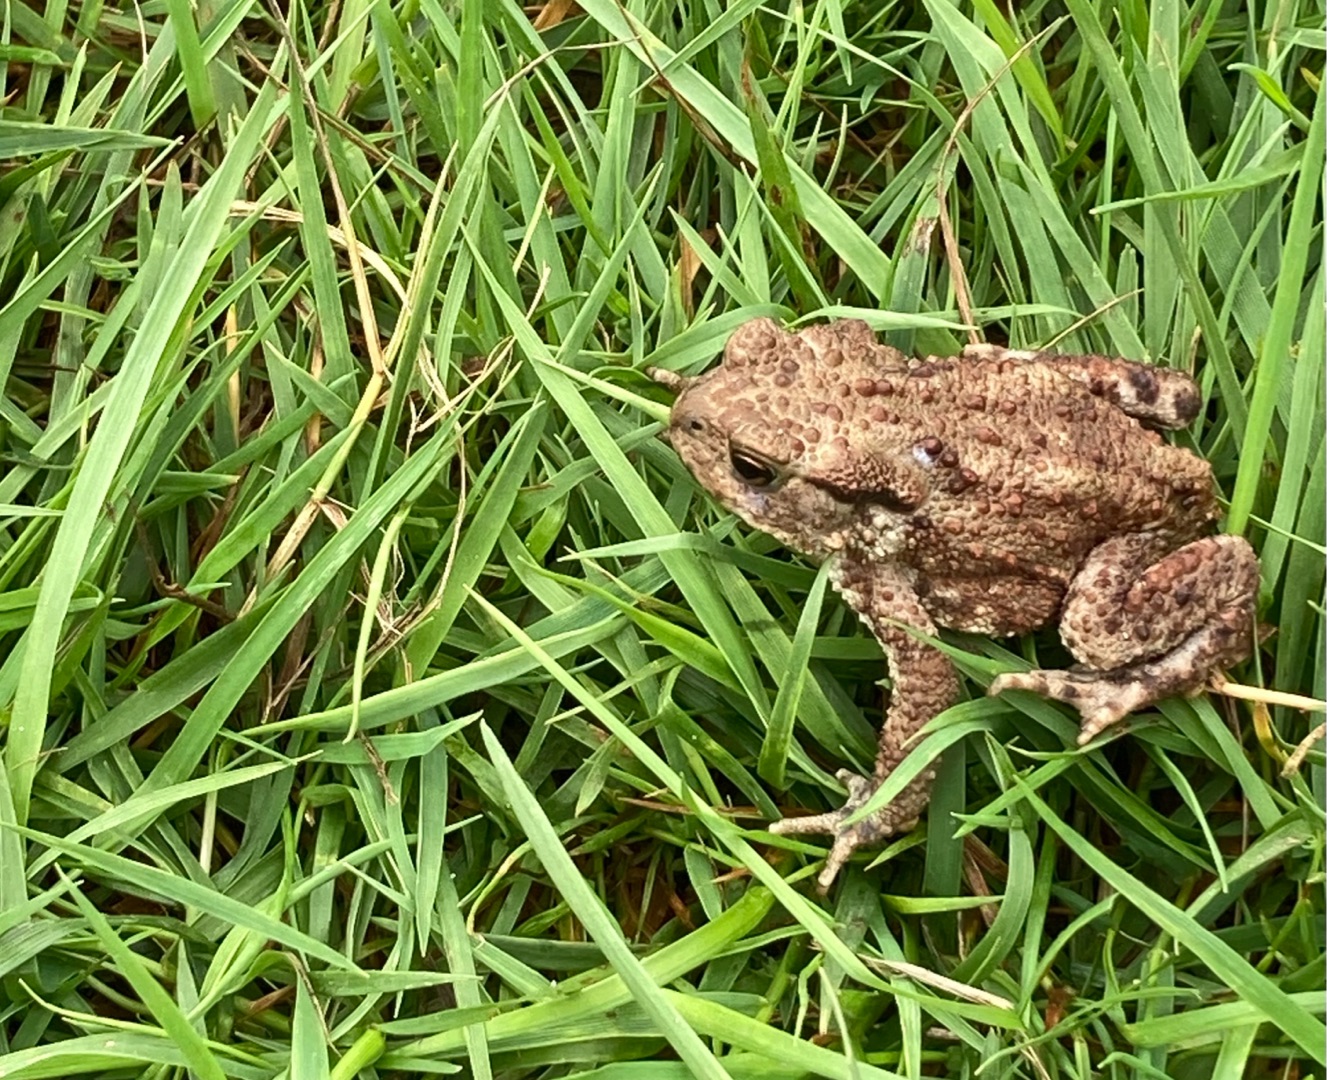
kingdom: Animalia
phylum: Chordata
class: Amphibia
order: Anura
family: Bufonidae
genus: Bufo
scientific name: Bufo bufo
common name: Skrubtudse
